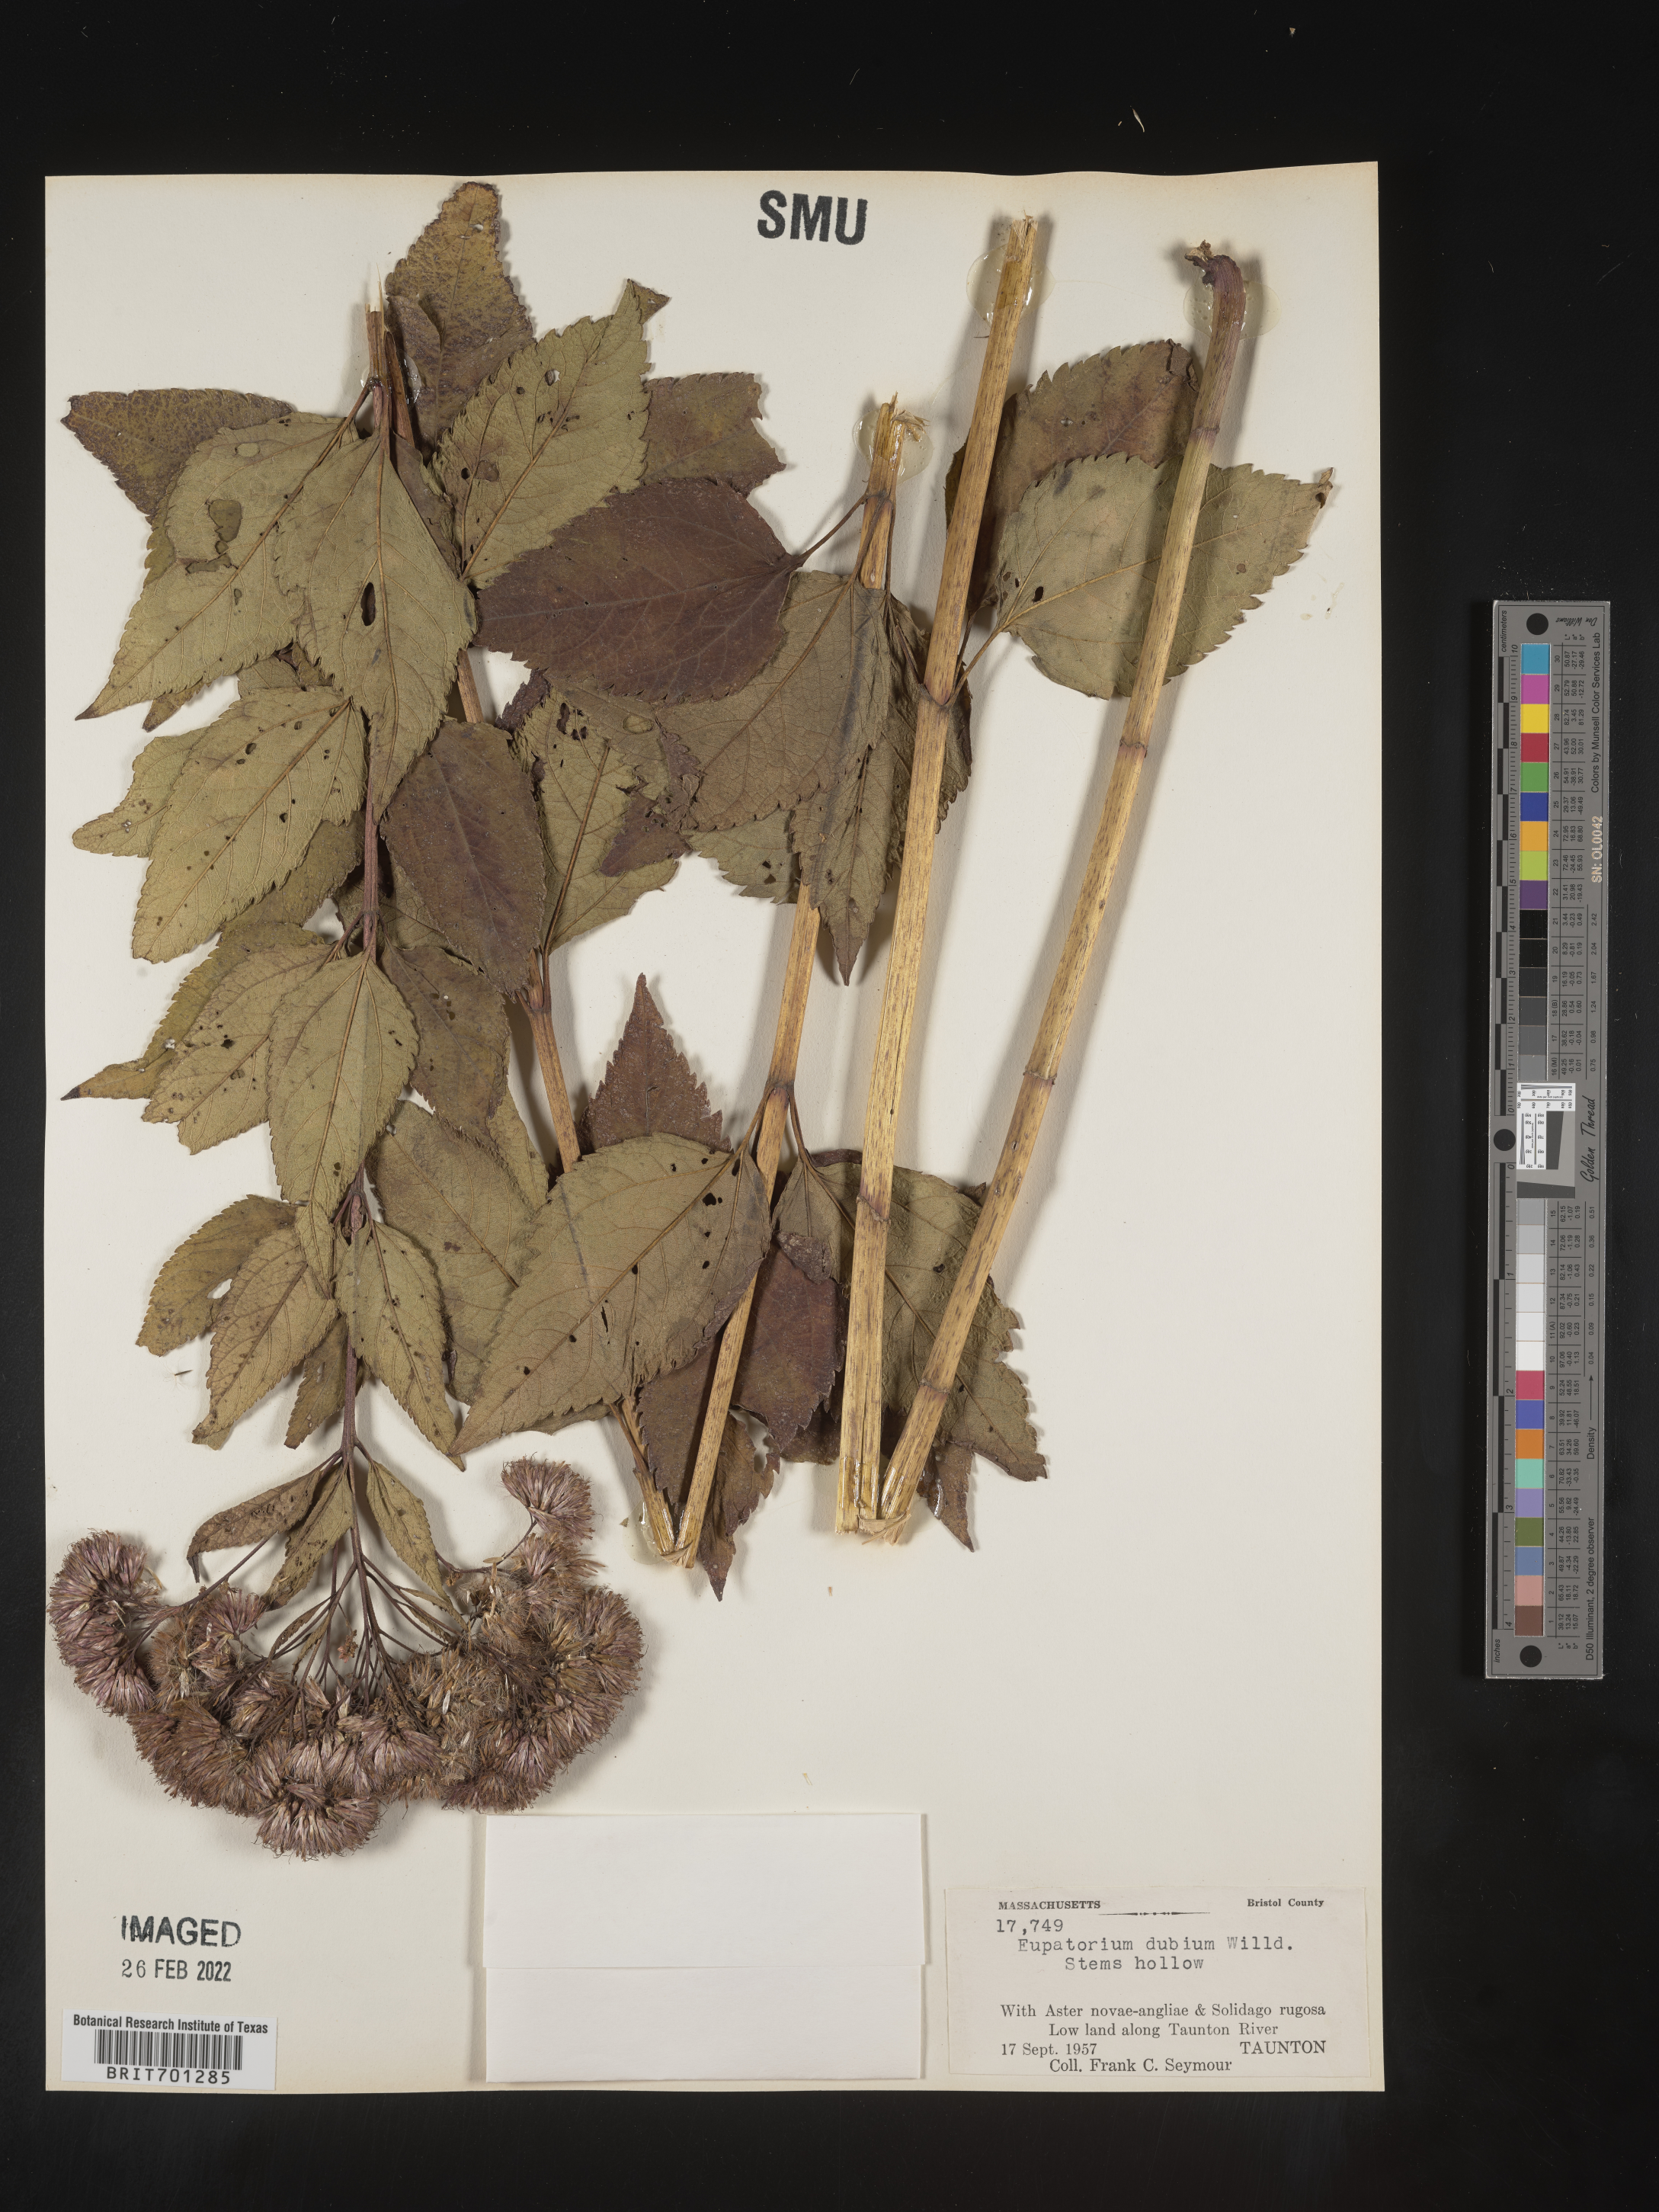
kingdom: Plantae
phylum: Tracheophyta
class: Magnoliopsida
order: Asterales
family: Asteraceae
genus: Eutrochium
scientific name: Eutrochium dubium
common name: Coastal plain joe pye weed
